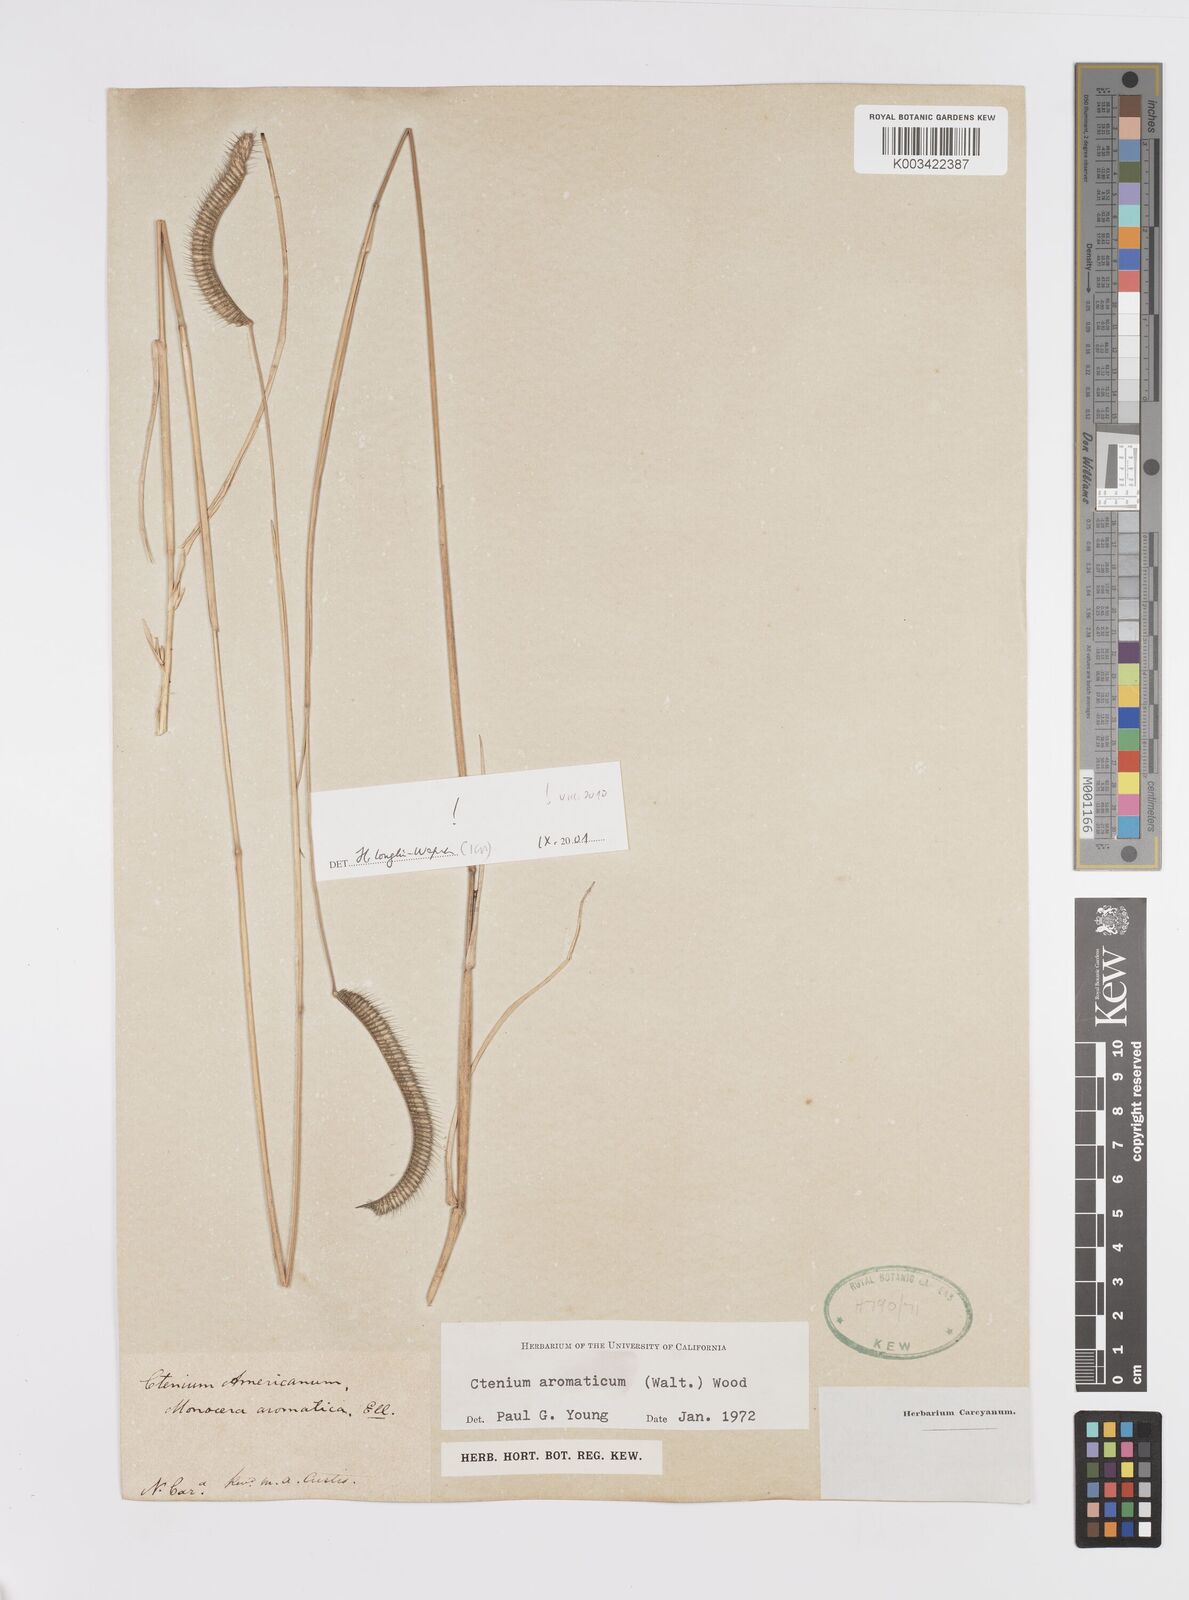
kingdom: Plantae
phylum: Tracheophyta
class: Liliopsida
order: Poales
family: Poaceae
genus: Ctenium
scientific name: Ctenium aromaticum
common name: Toothache grass
